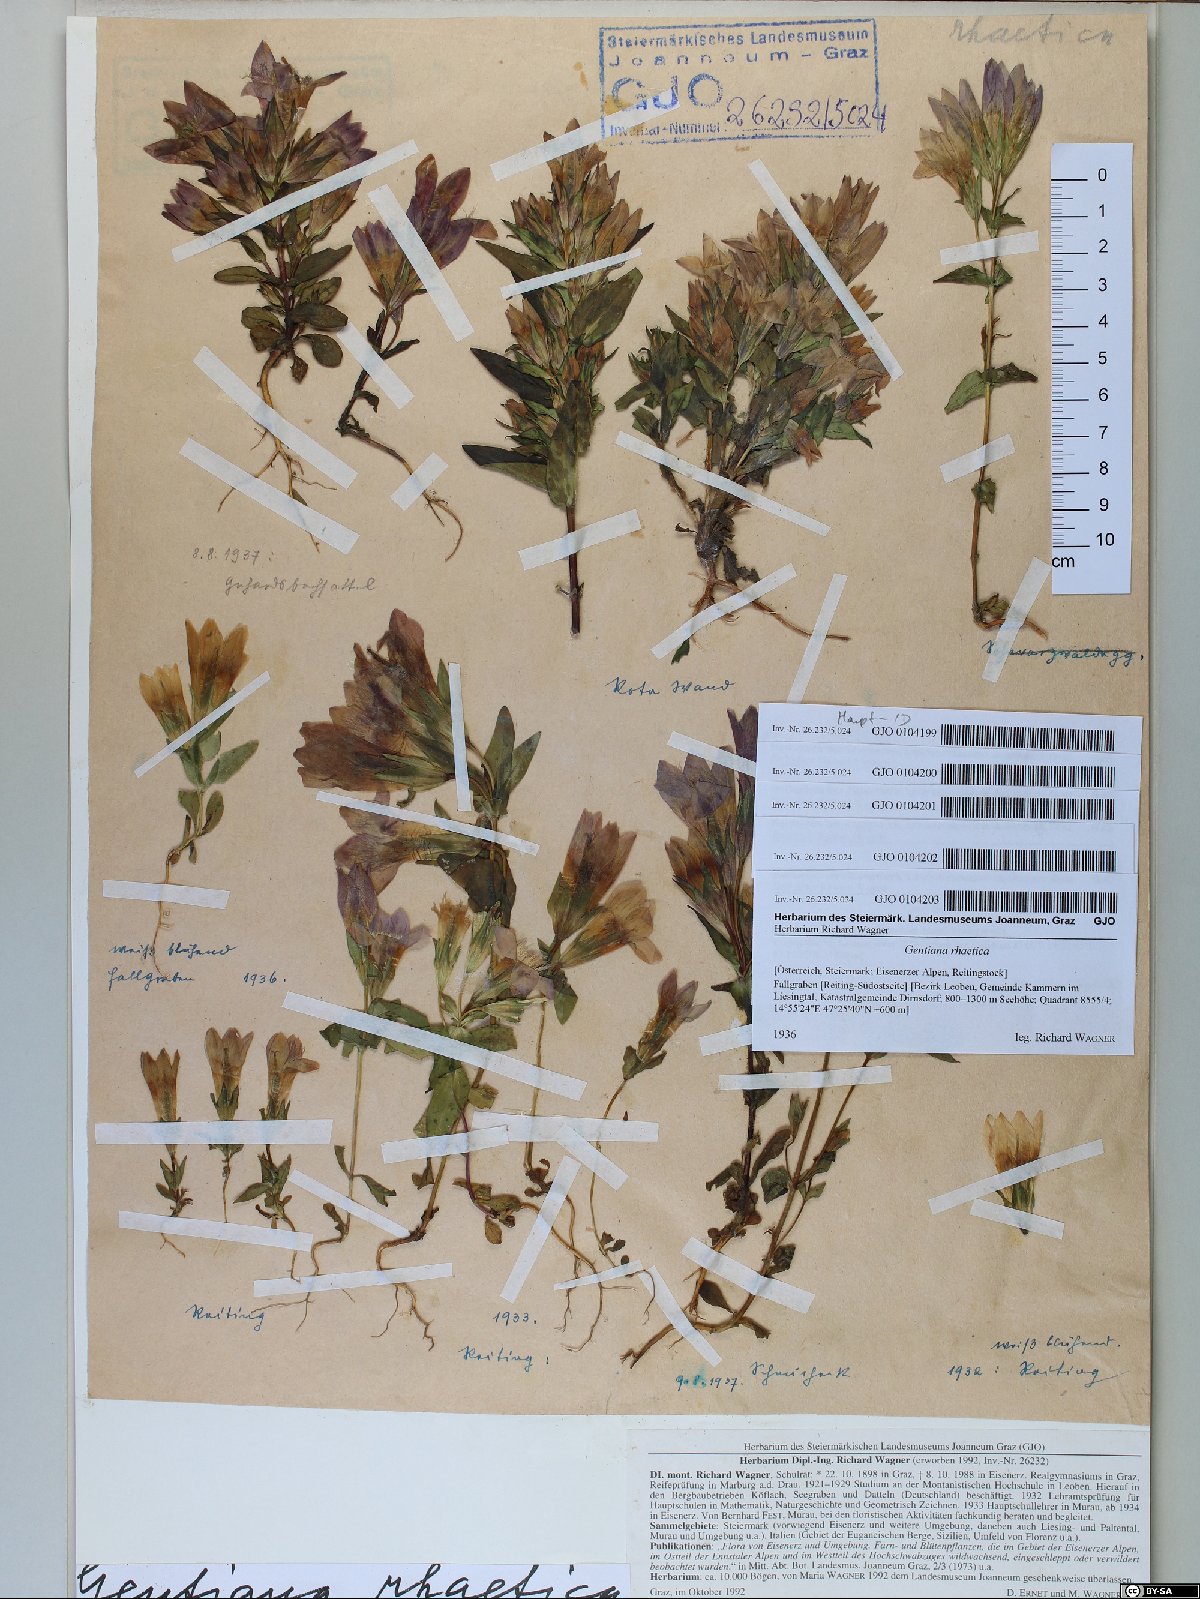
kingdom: Plantae
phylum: Tracheophyta
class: Magnoliopsida
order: Gentianales
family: Gentianaceae
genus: Gentianella
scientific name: Gentianella rhaetica
